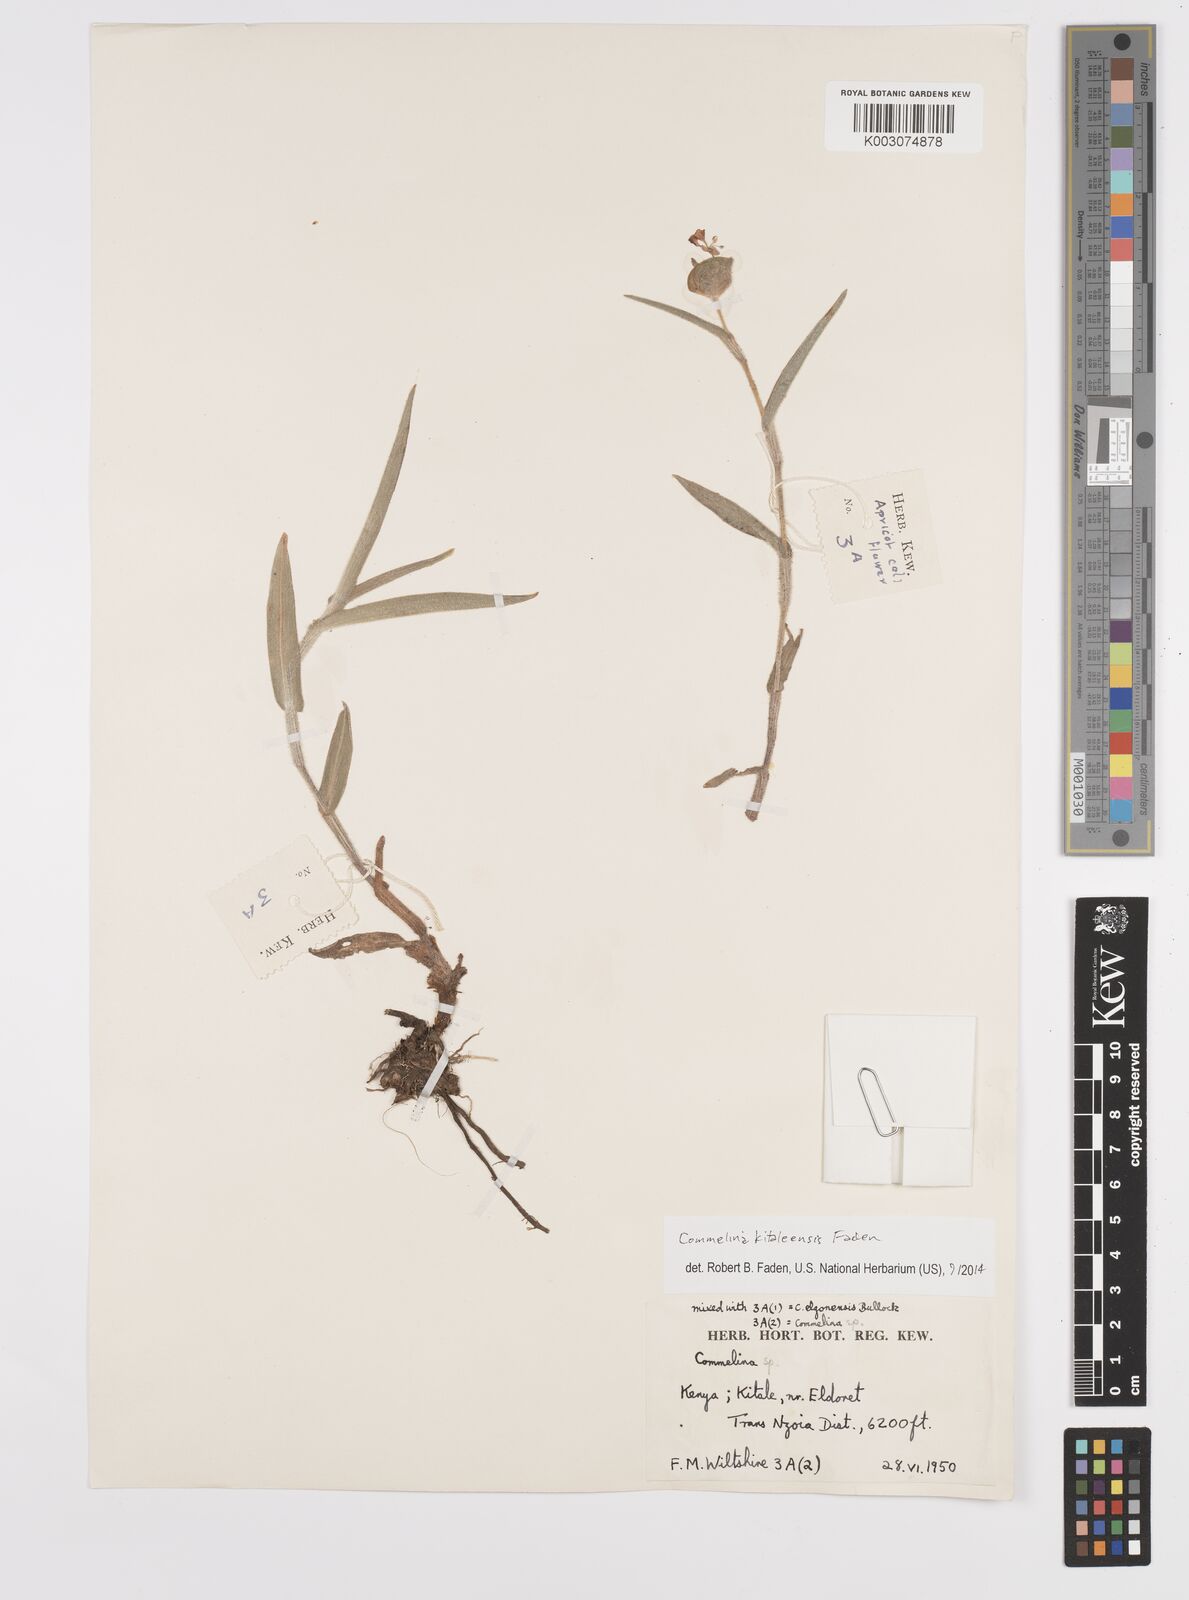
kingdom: Plantae
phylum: Tracheophyta
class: Liliopsida
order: Commelinales
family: Commelinaceae
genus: Commelina
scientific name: Commelina kitaleensis
